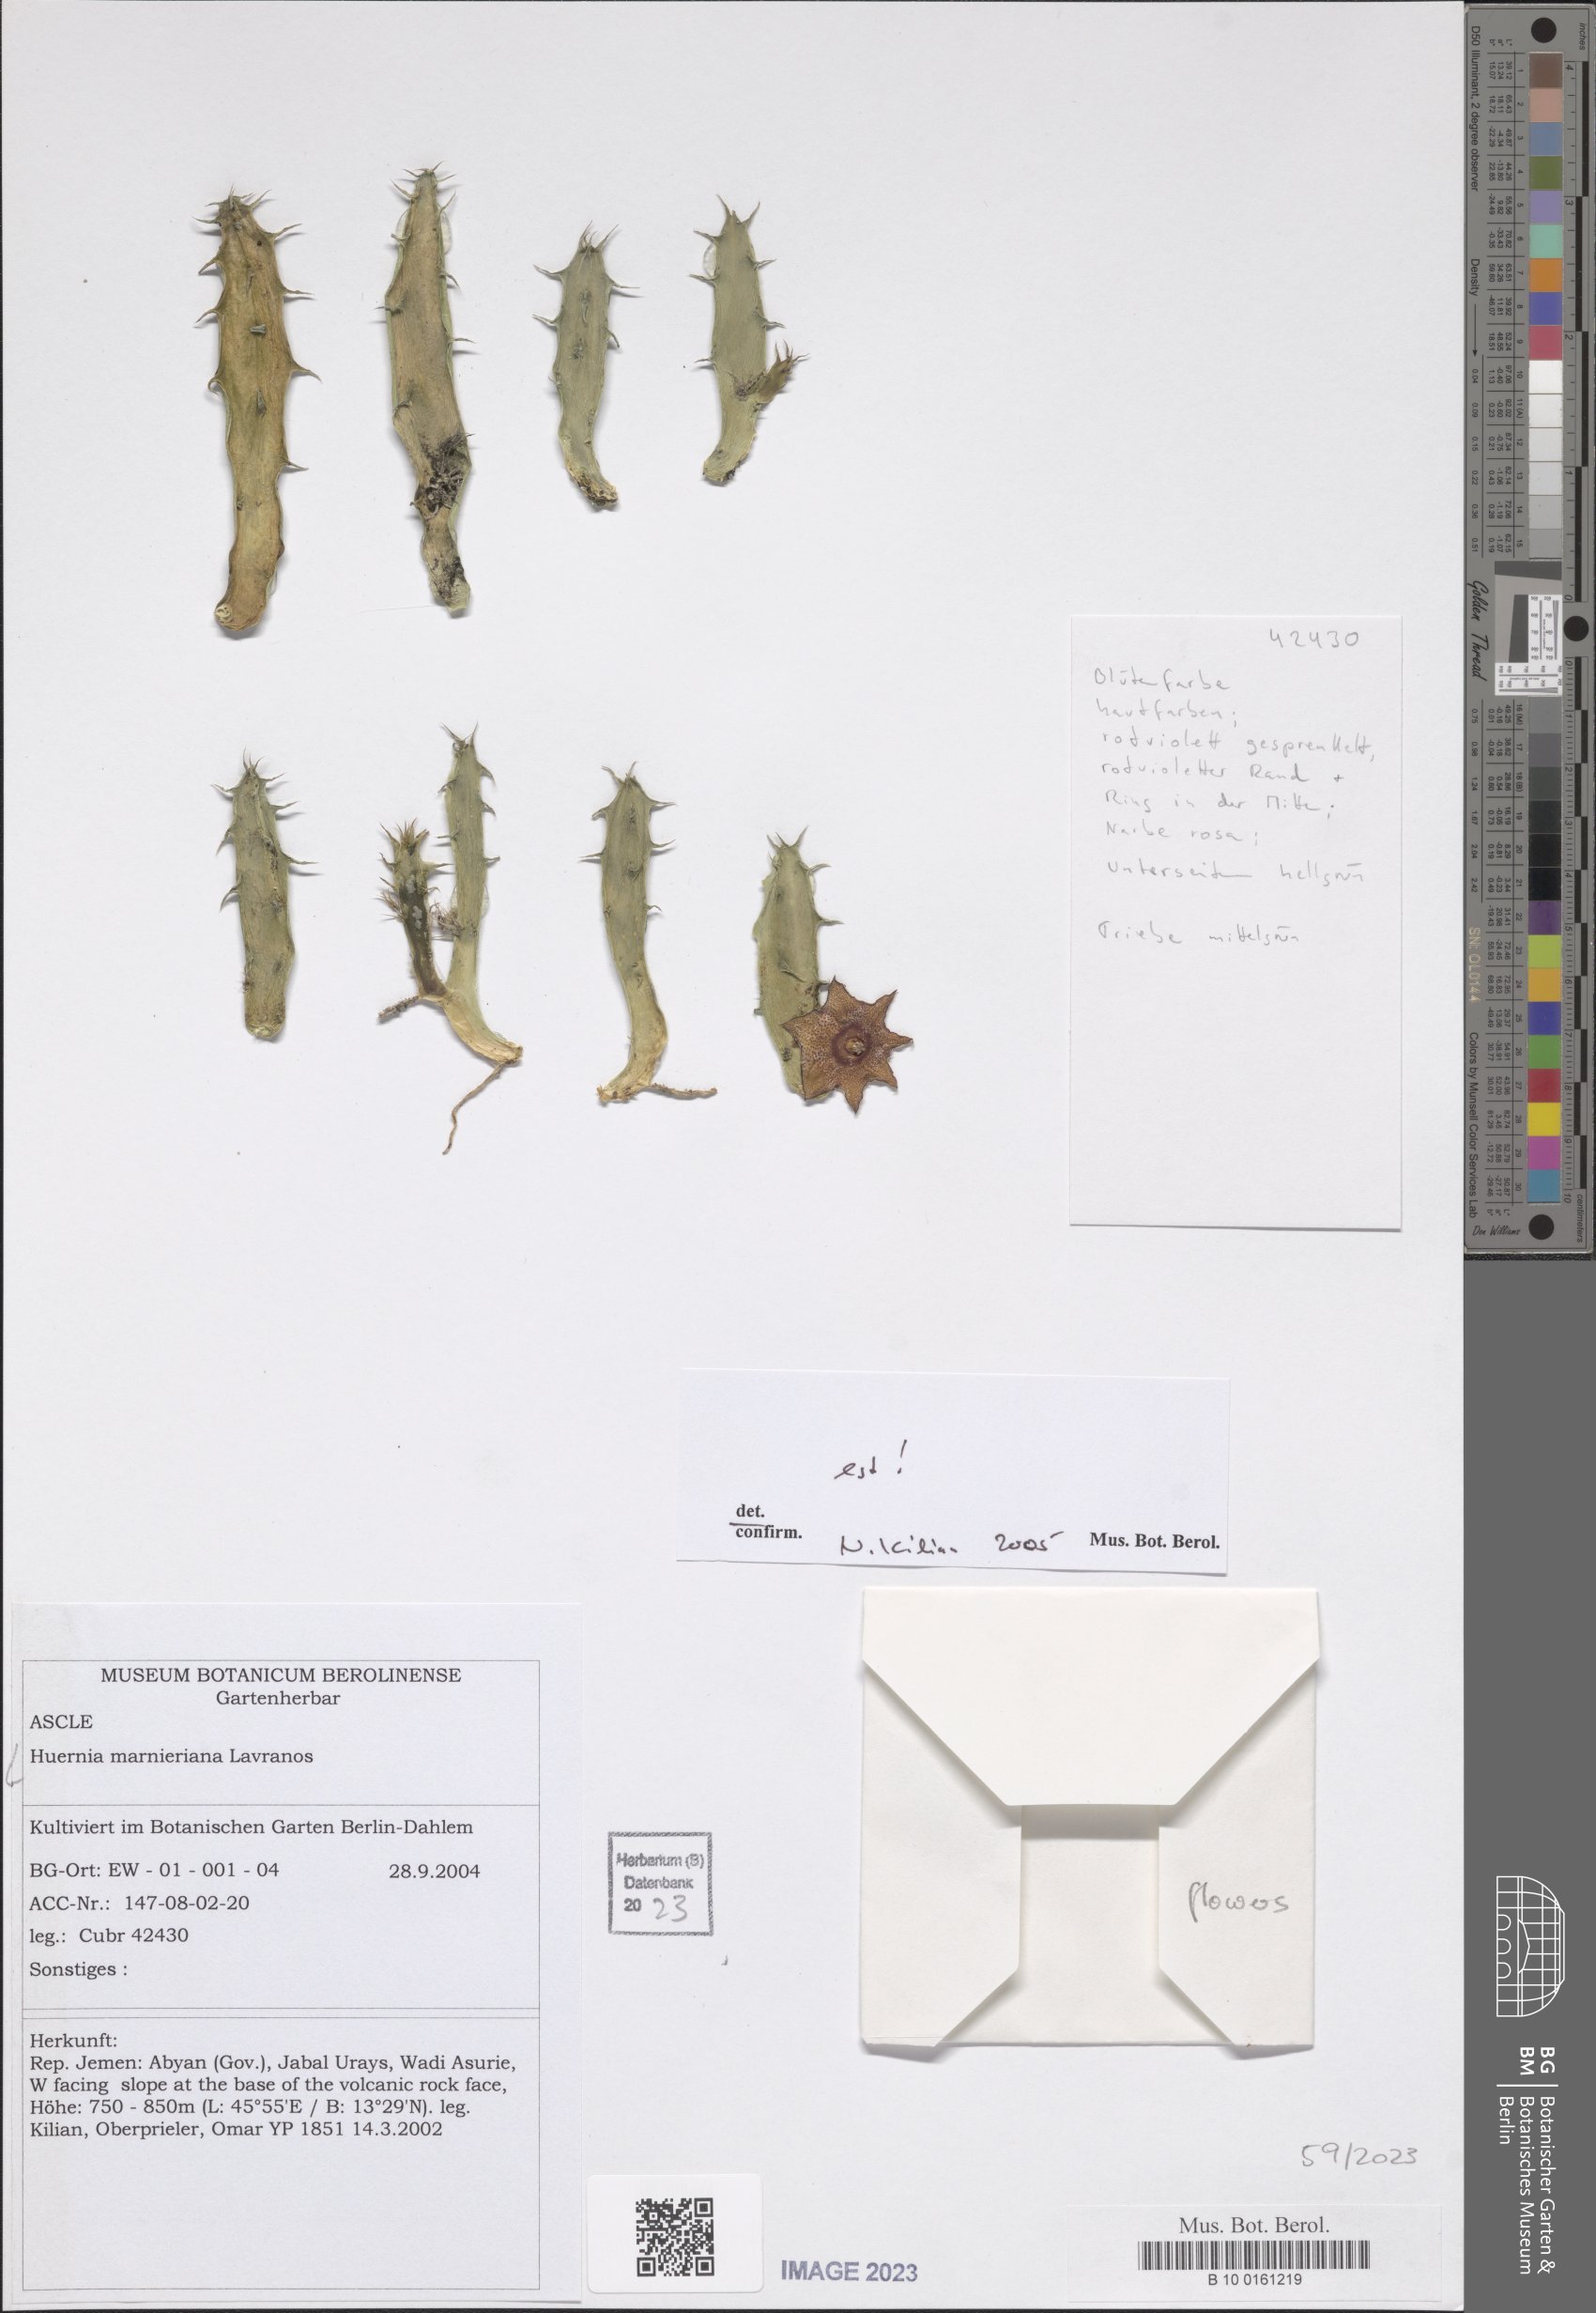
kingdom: Plantae
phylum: Tracheophyta
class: Magnoliopsida
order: Gentianales
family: Apocynaceae
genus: Ceropegia
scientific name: Ceropegia marnierana
